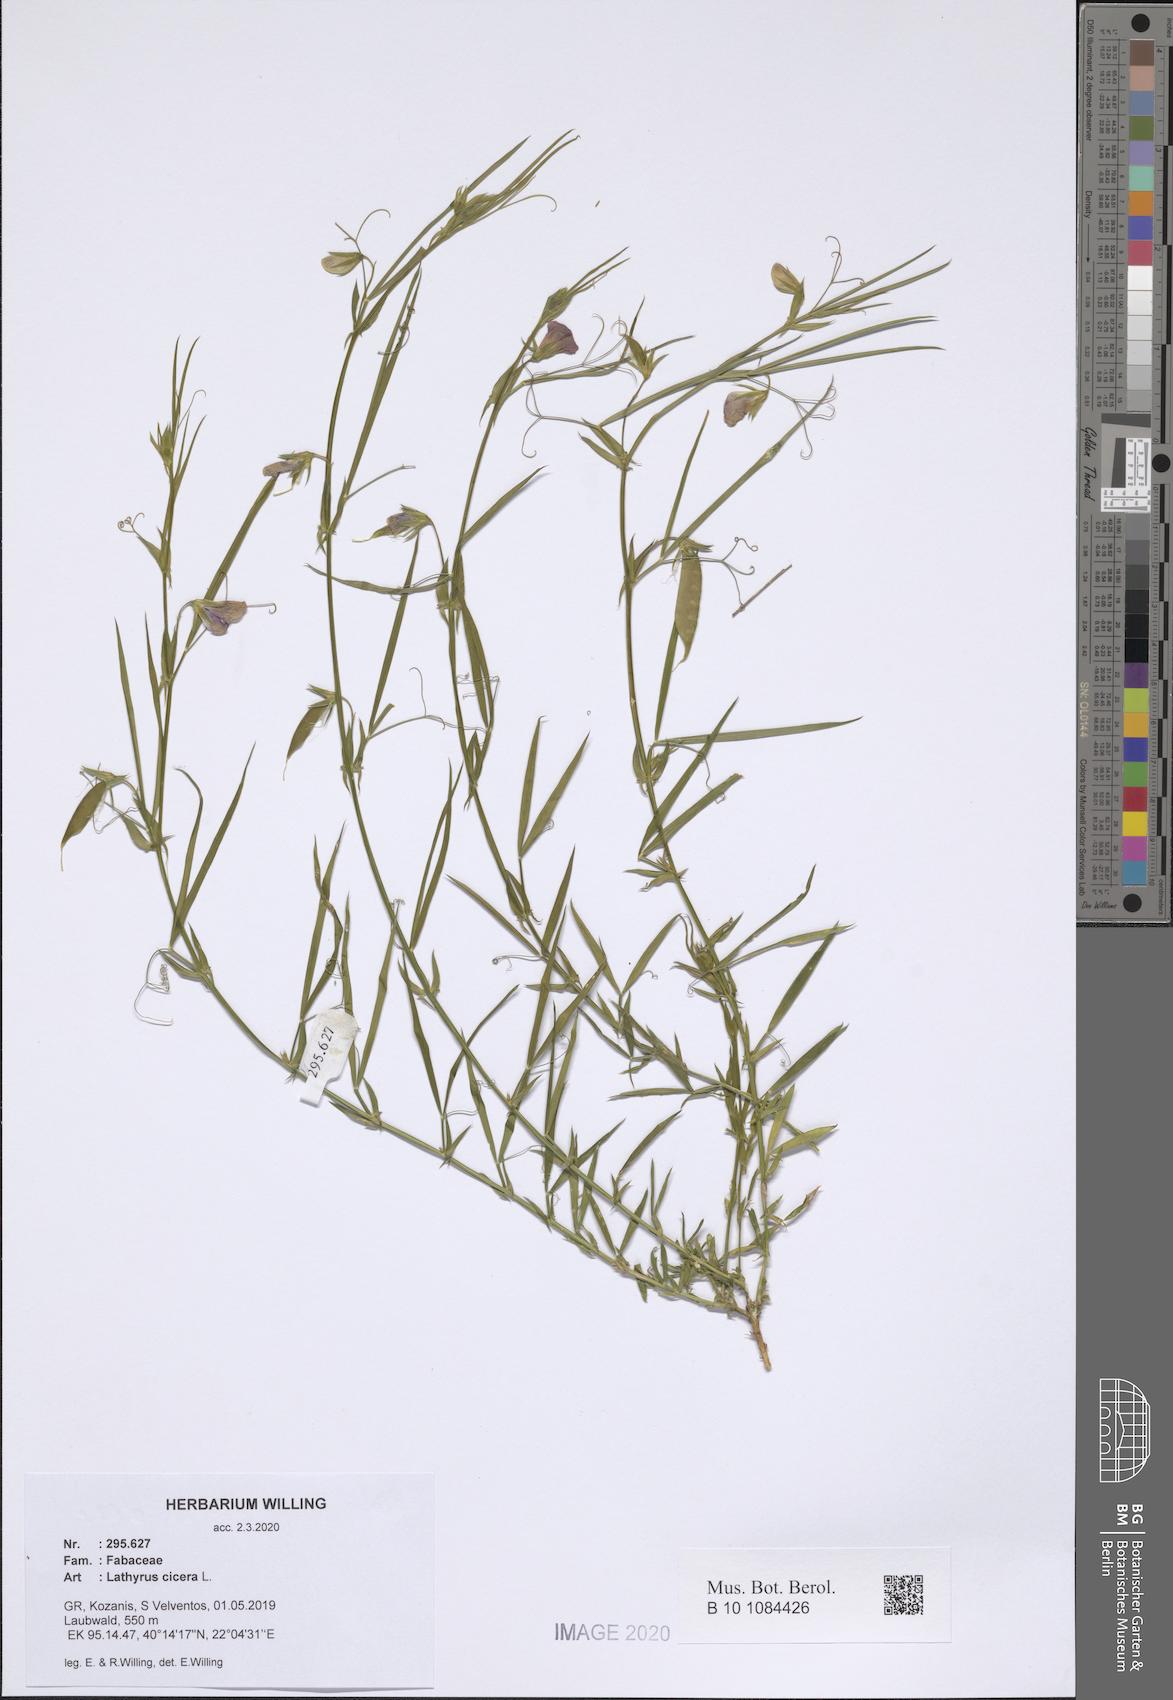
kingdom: Plantae
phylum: Tracheophyta
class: Magnoliopsida
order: Fabales
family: Fabaceae
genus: Lathyrus
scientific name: Lathyrus cicera
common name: Red vetchling
